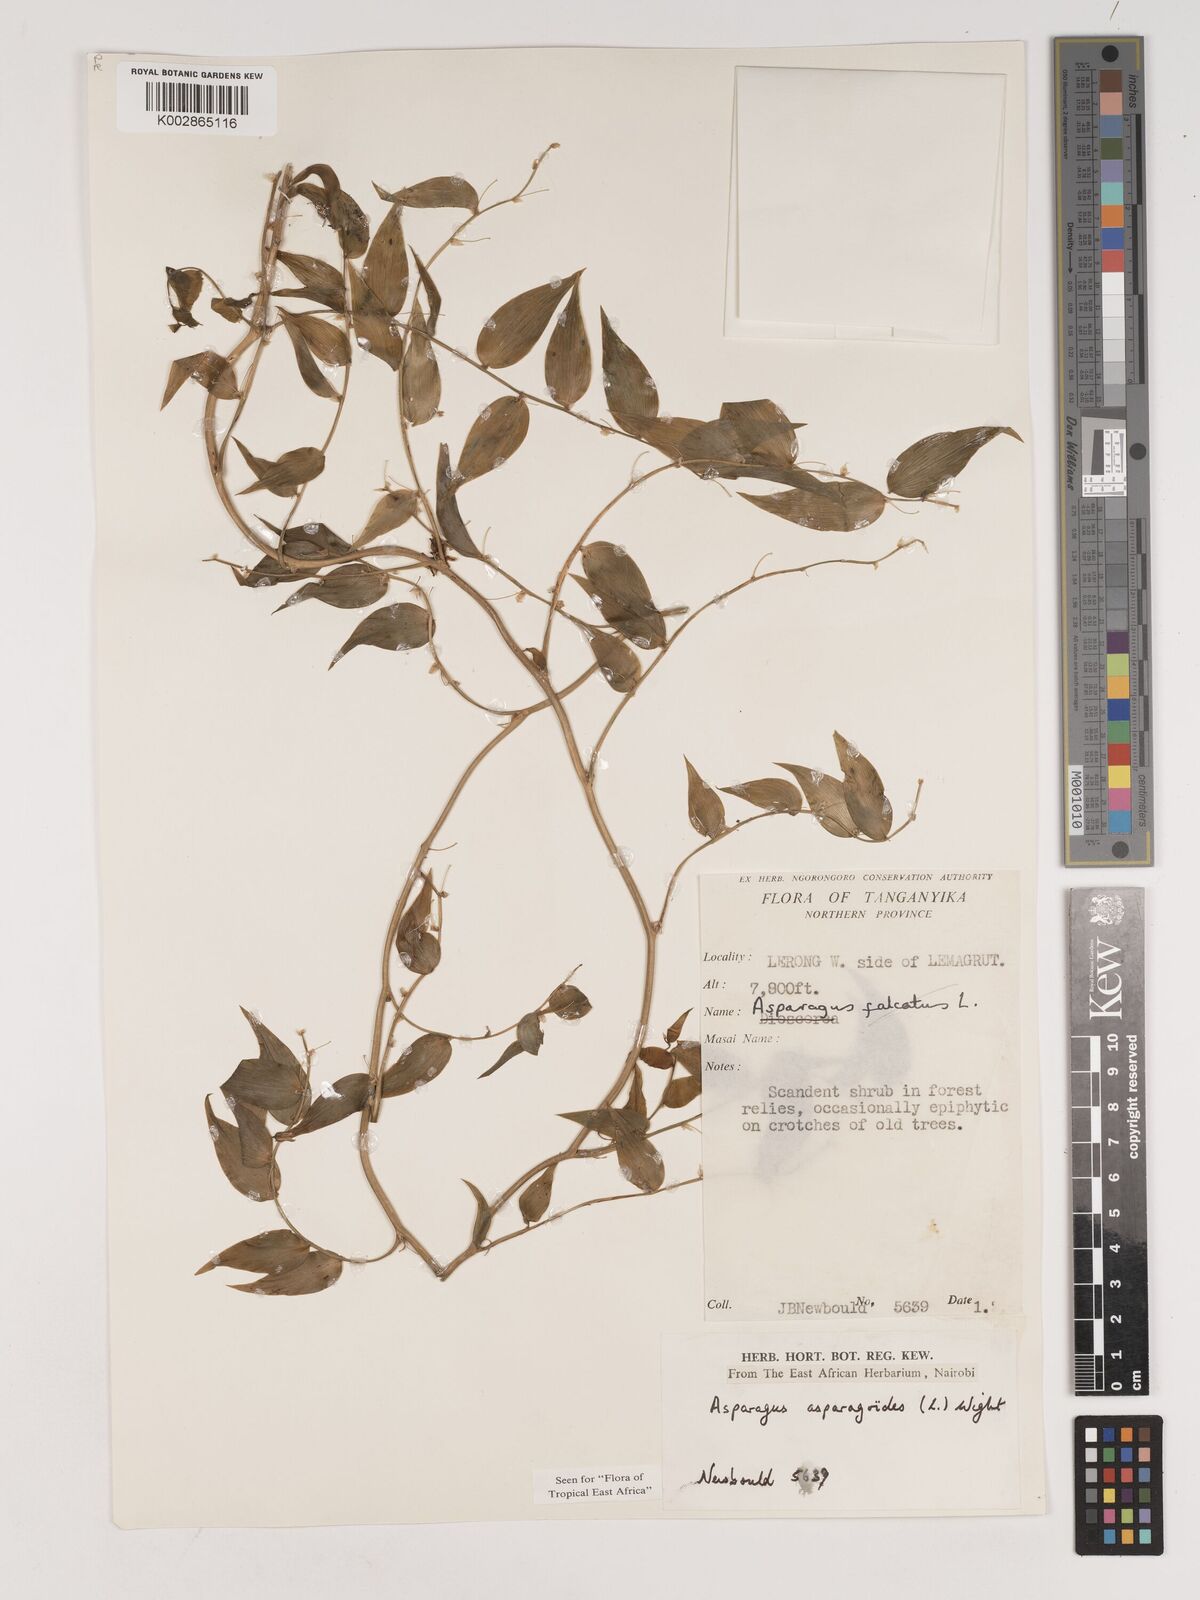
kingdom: Plantae
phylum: Tracheophyta
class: Liliopsida
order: Asparagales
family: Asparagaceae
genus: Asparagus
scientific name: Asparagus asparagoides
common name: African asparagus fern
